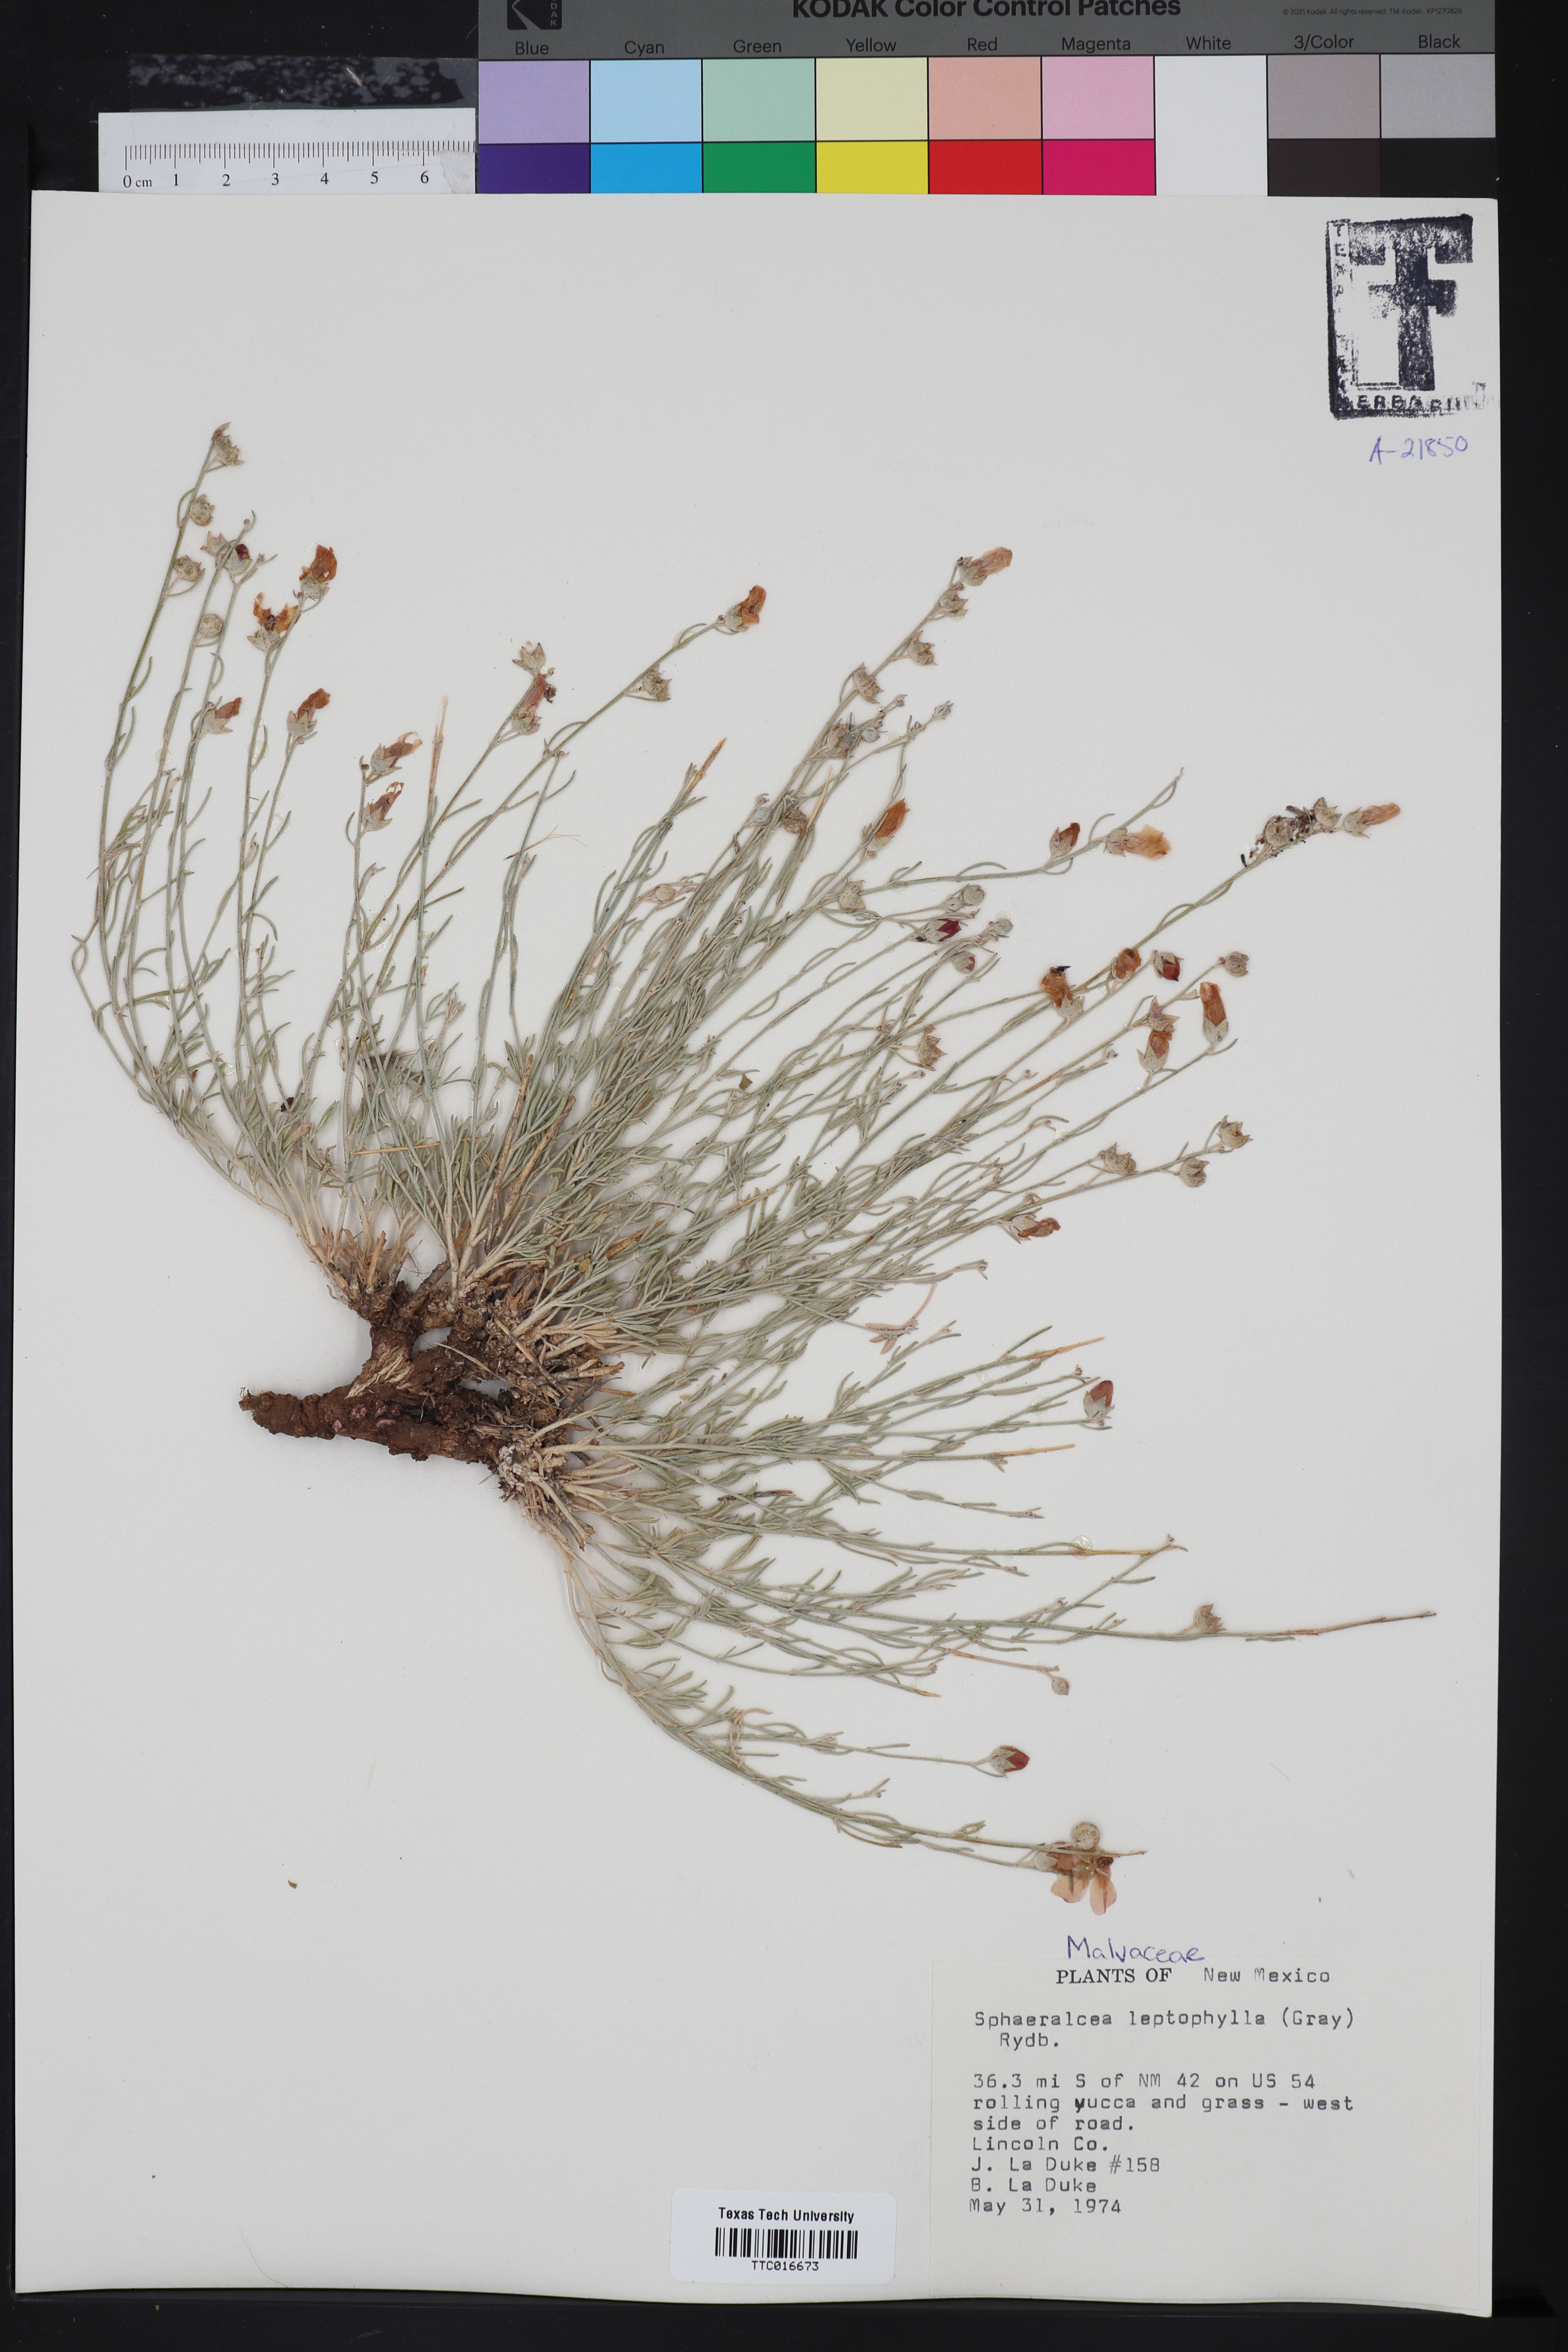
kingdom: Plantae
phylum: Tracheophyta
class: Magnoliopsida
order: Malvales
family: Malvaceae
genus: Sphaeralcea
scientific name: Sphaeralcea leptophylla
